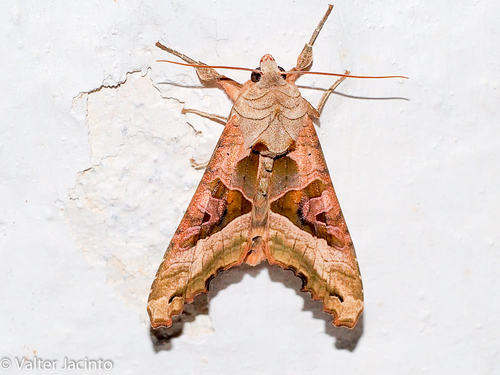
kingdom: Animalia
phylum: Arthropoda
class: Insecta
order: Lepidoptera
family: Noctuidae
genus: Phlogophora
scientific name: Phlogophora meticulosa
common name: Angle shades
